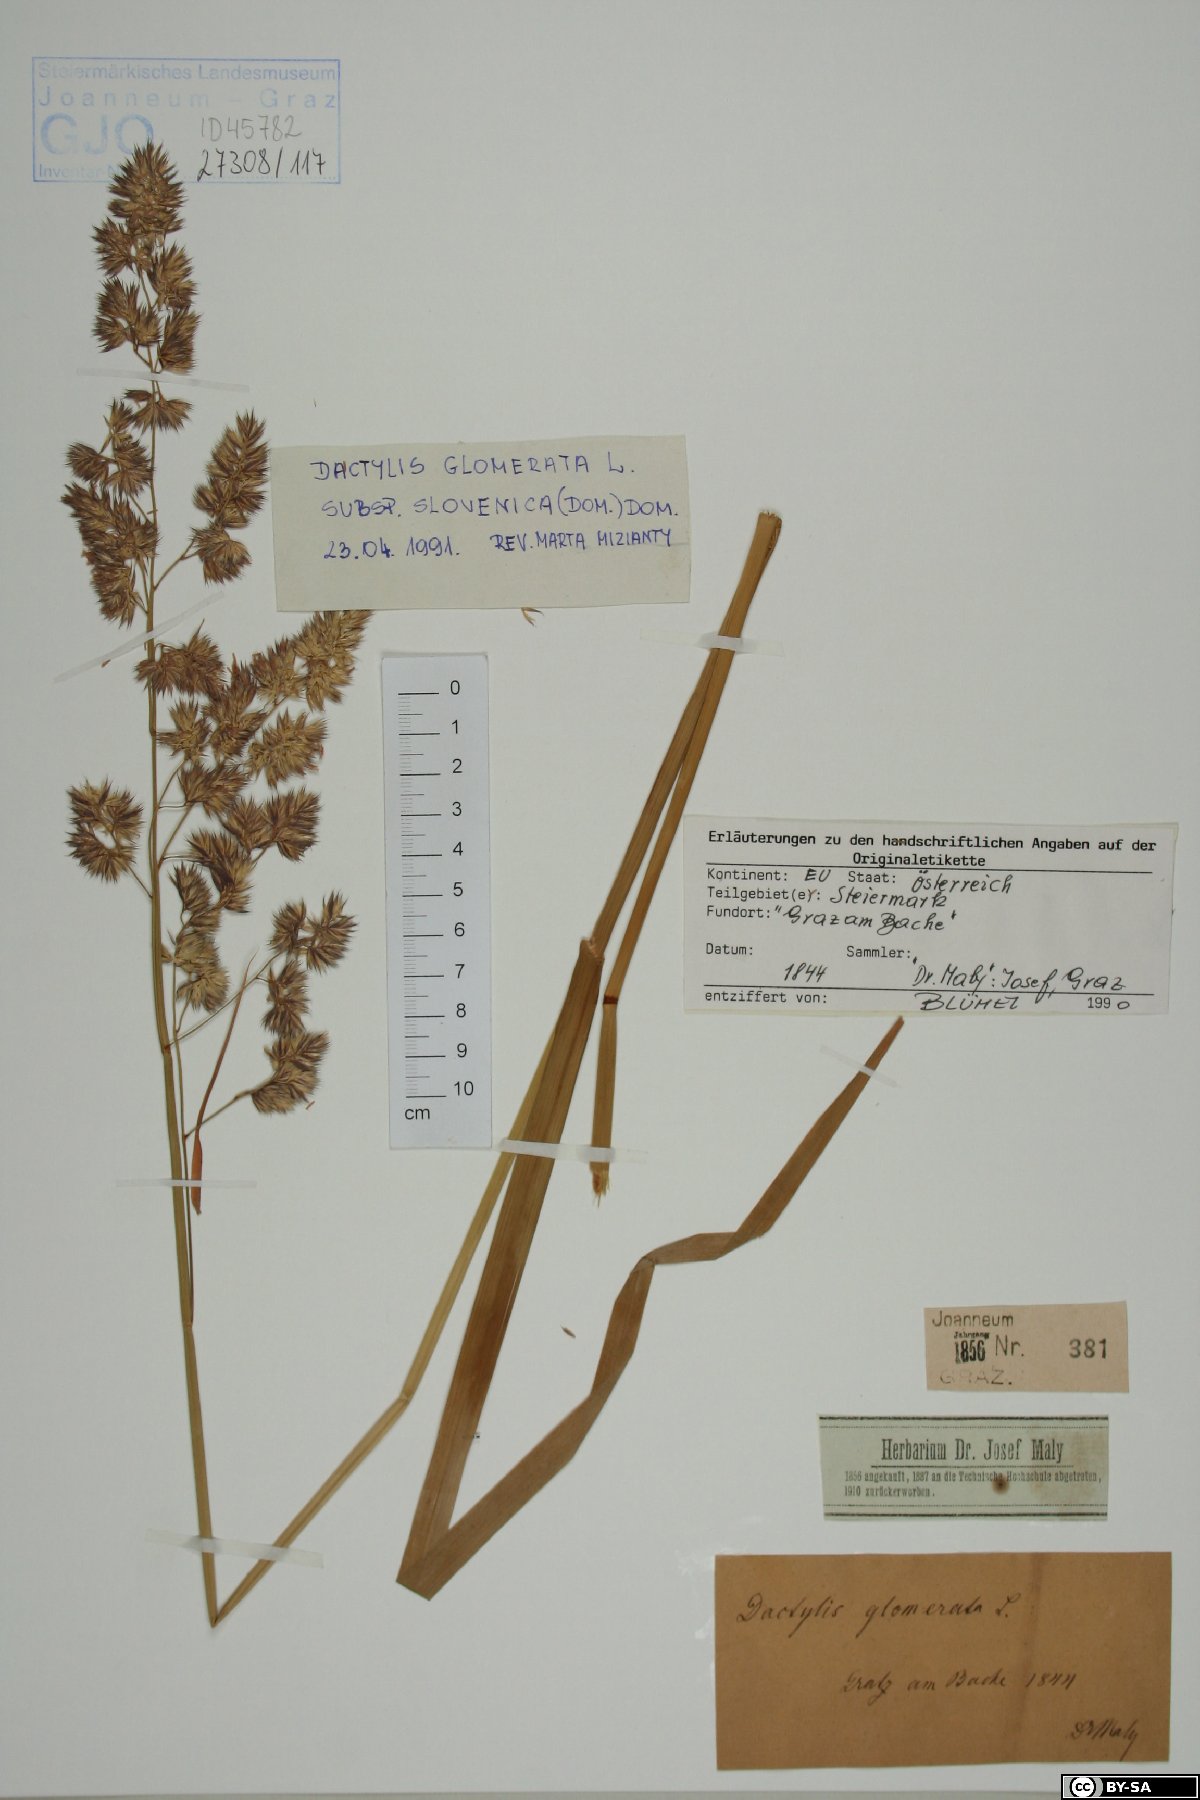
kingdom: Plantae
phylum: Tracheophyta
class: Liliopsida
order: Poales
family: Poaceae
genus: Dactylis
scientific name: Dactylis glomerata
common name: Orchardgrass
